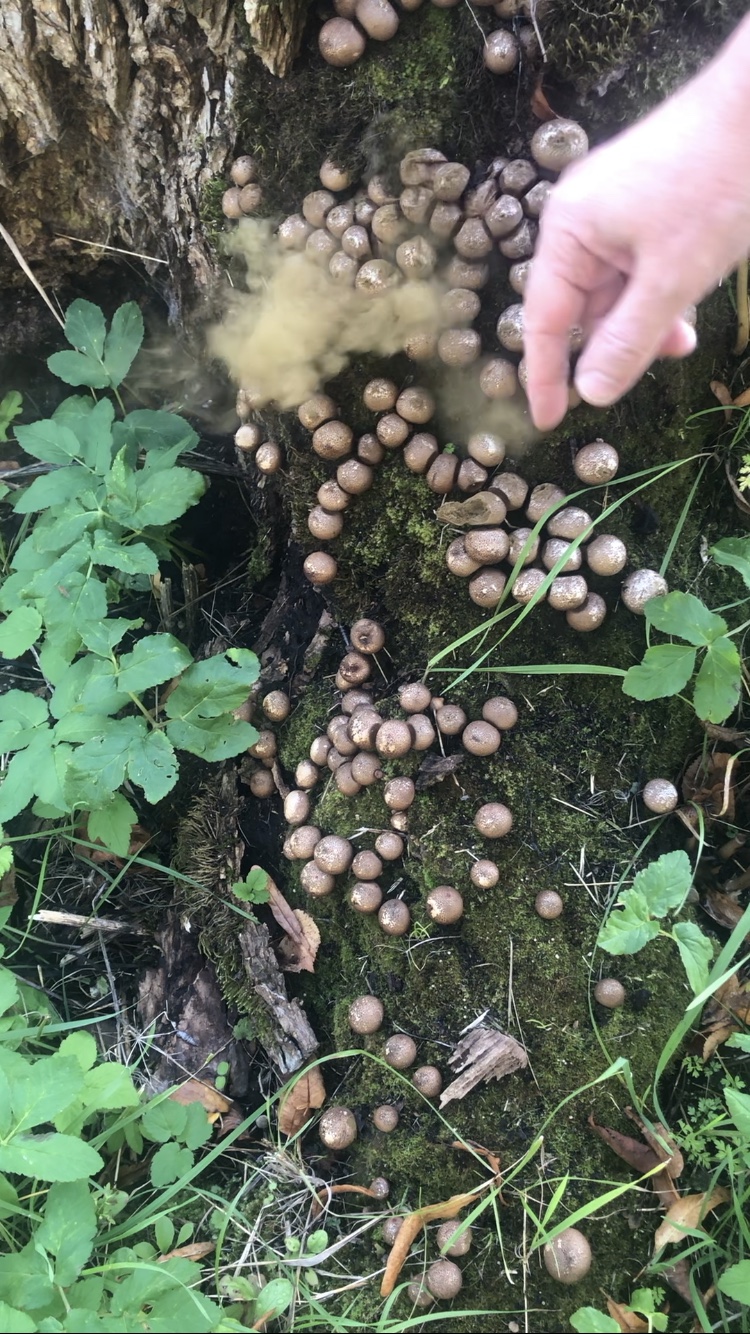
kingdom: Fungi
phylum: Basidiomycota
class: Agaricomycetes
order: Agaricales
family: Lycoperdaceae
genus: Apioperdon
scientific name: Apioperdon pyriforme
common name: pære-støvbold
